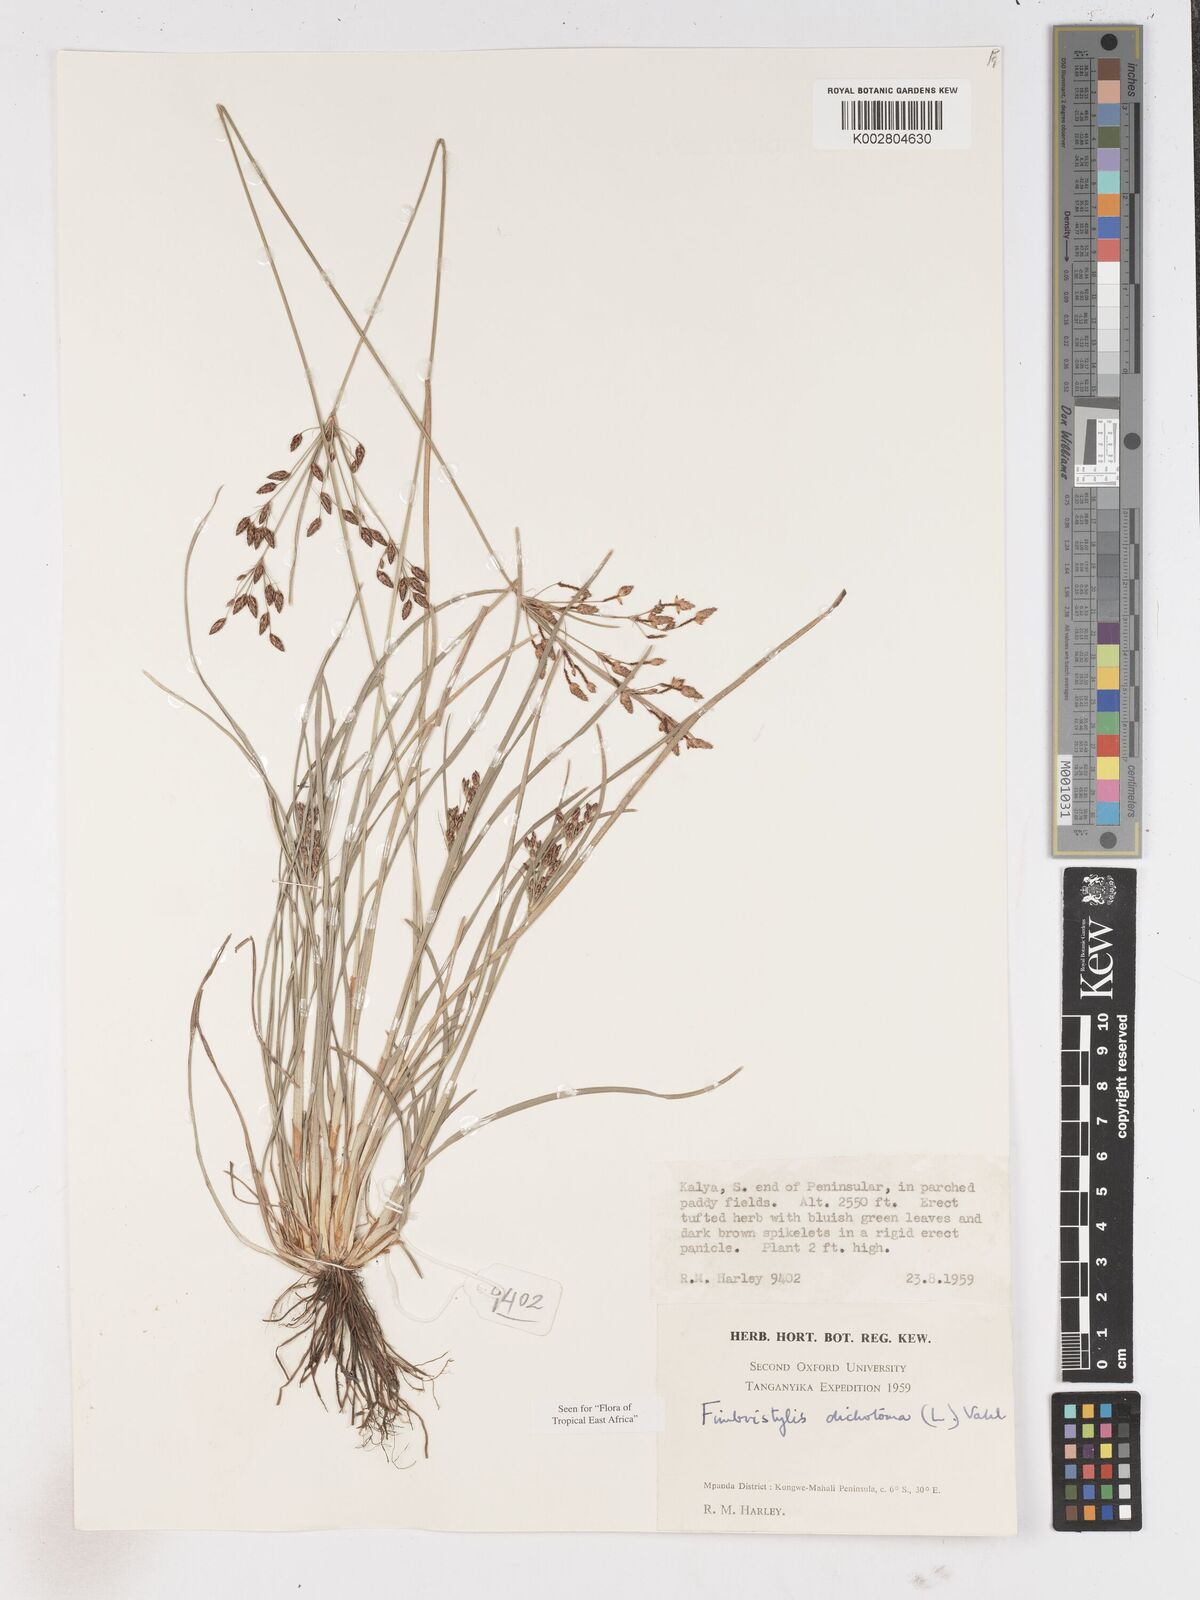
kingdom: Plantae
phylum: Tracheophyta
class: Liliopsida
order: Poales
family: Cyperaceae
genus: Fimbristylis
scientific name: Fimbristylis dichotoma
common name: Forked fimbry
